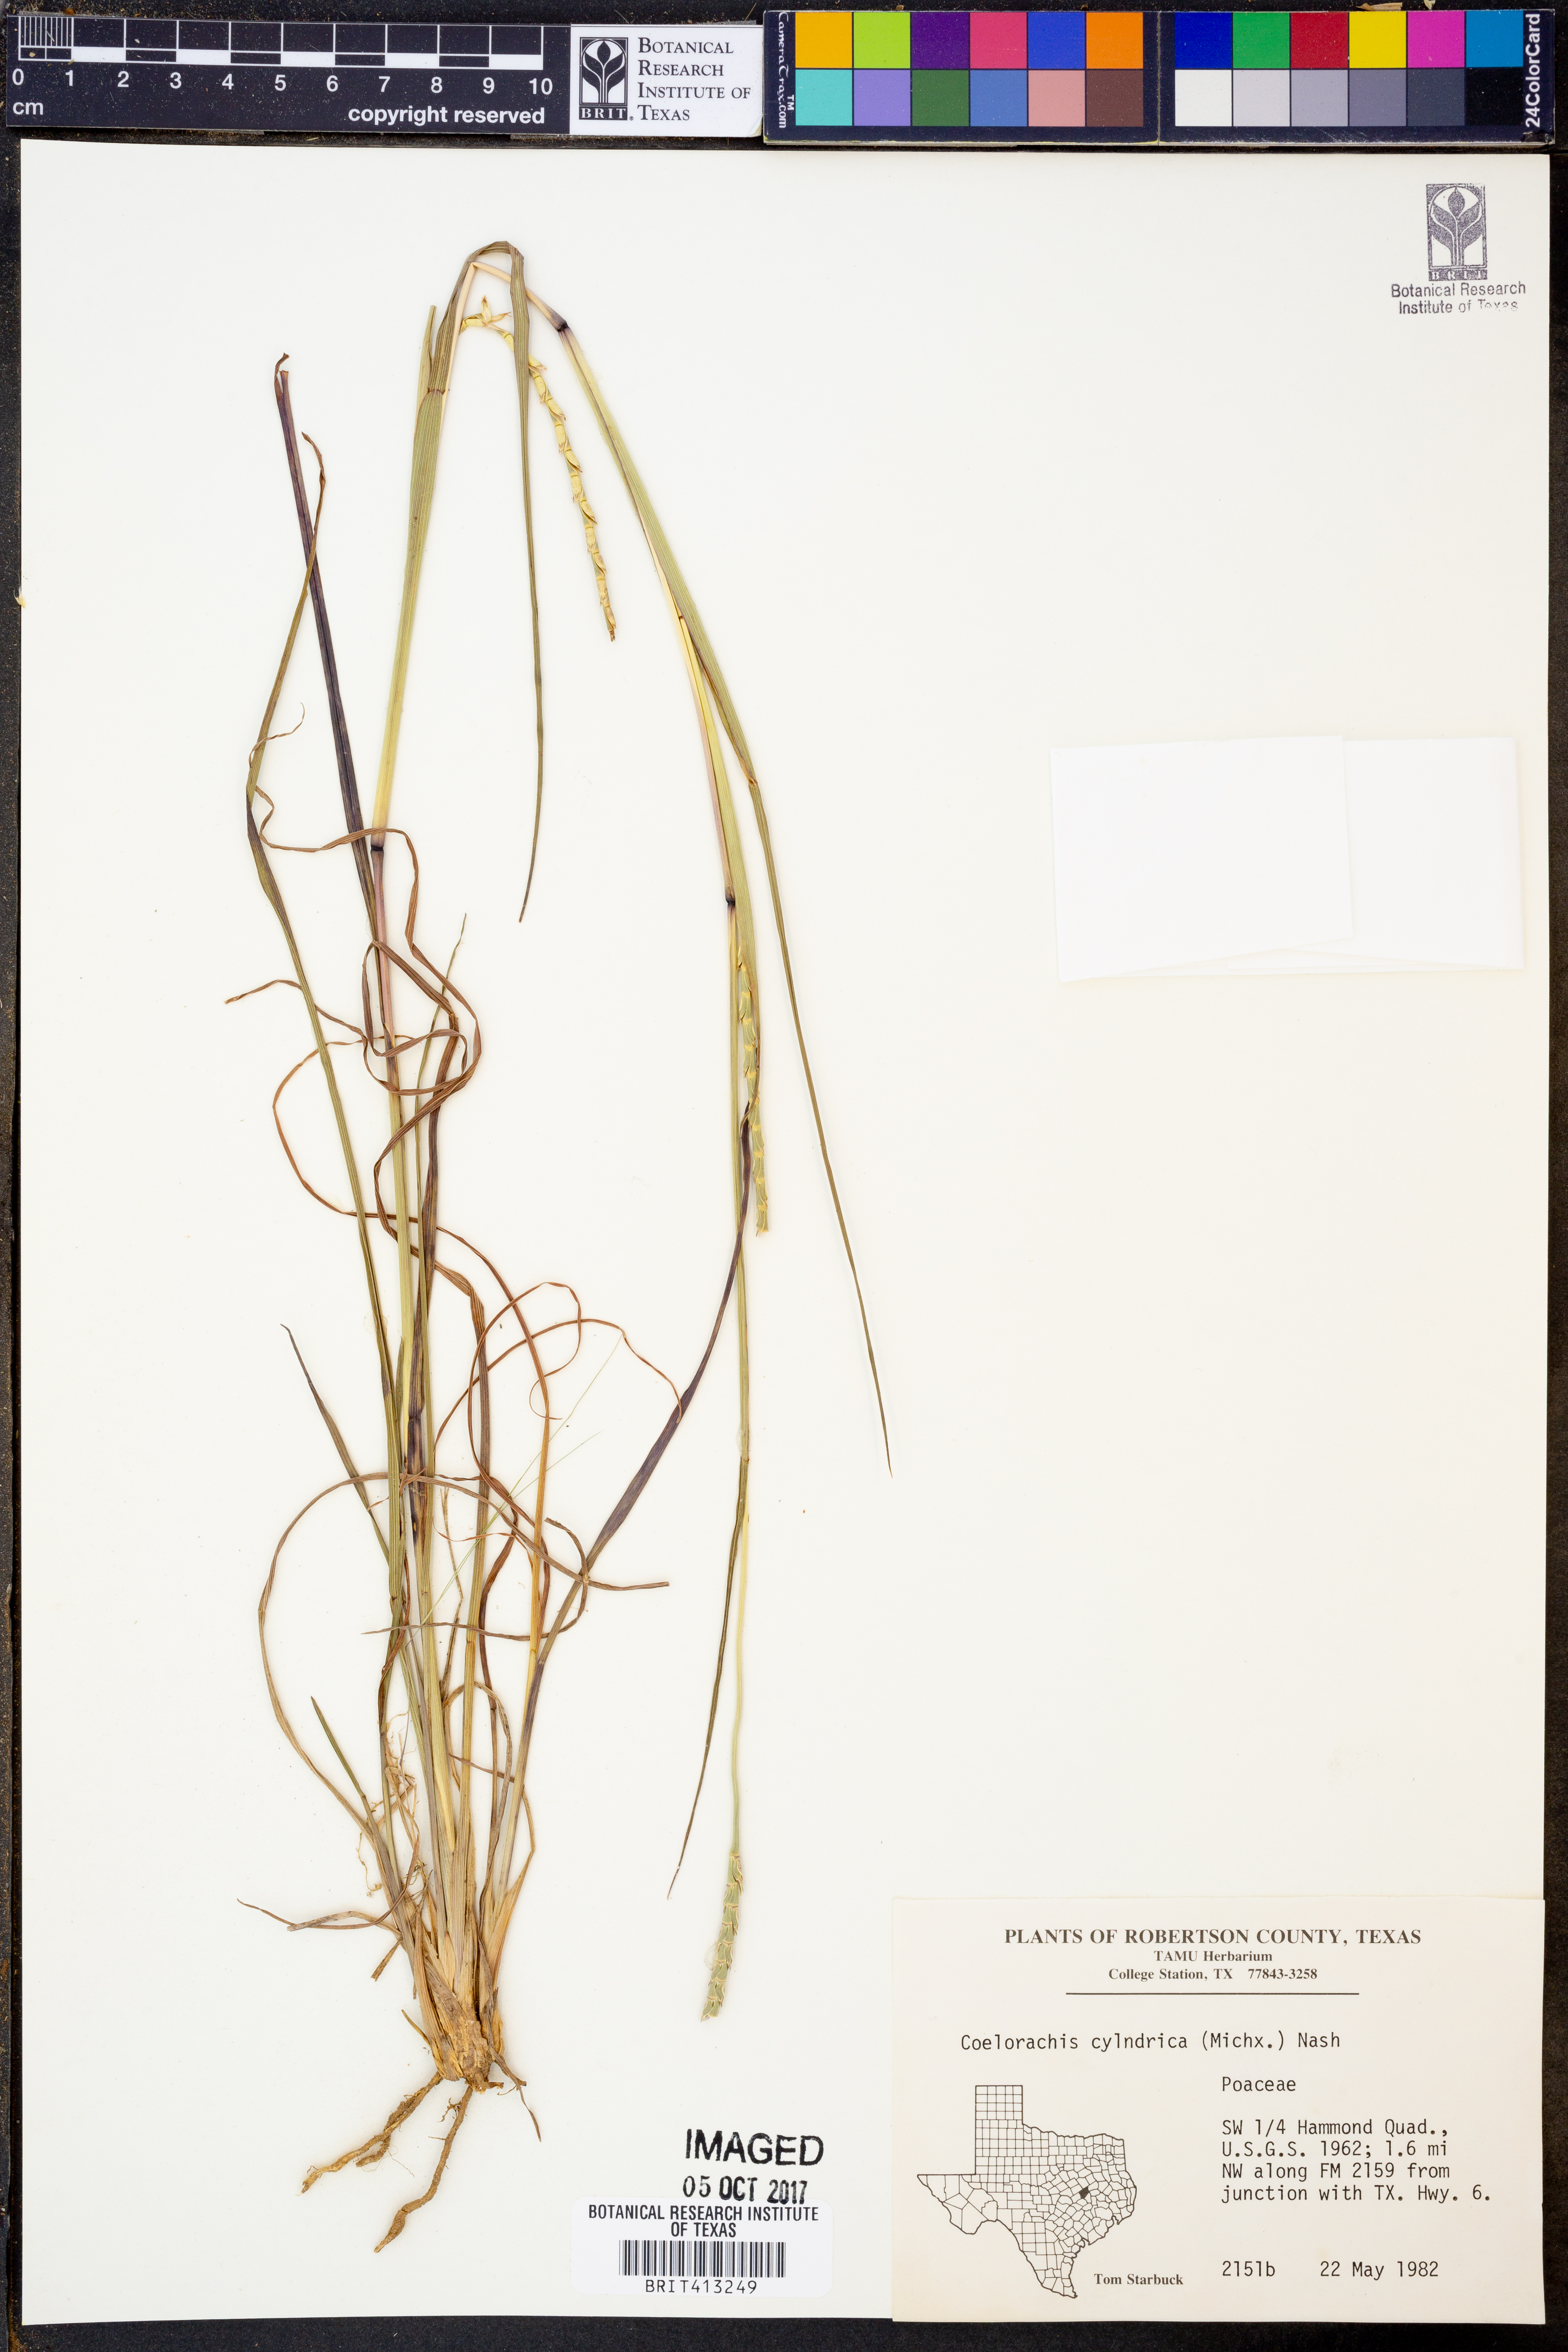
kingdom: Plantae
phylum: Tracheophyta
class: Liliopsida
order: Poales
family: Poaceae
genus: Rottboellia
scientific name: Rottboellia campestris
